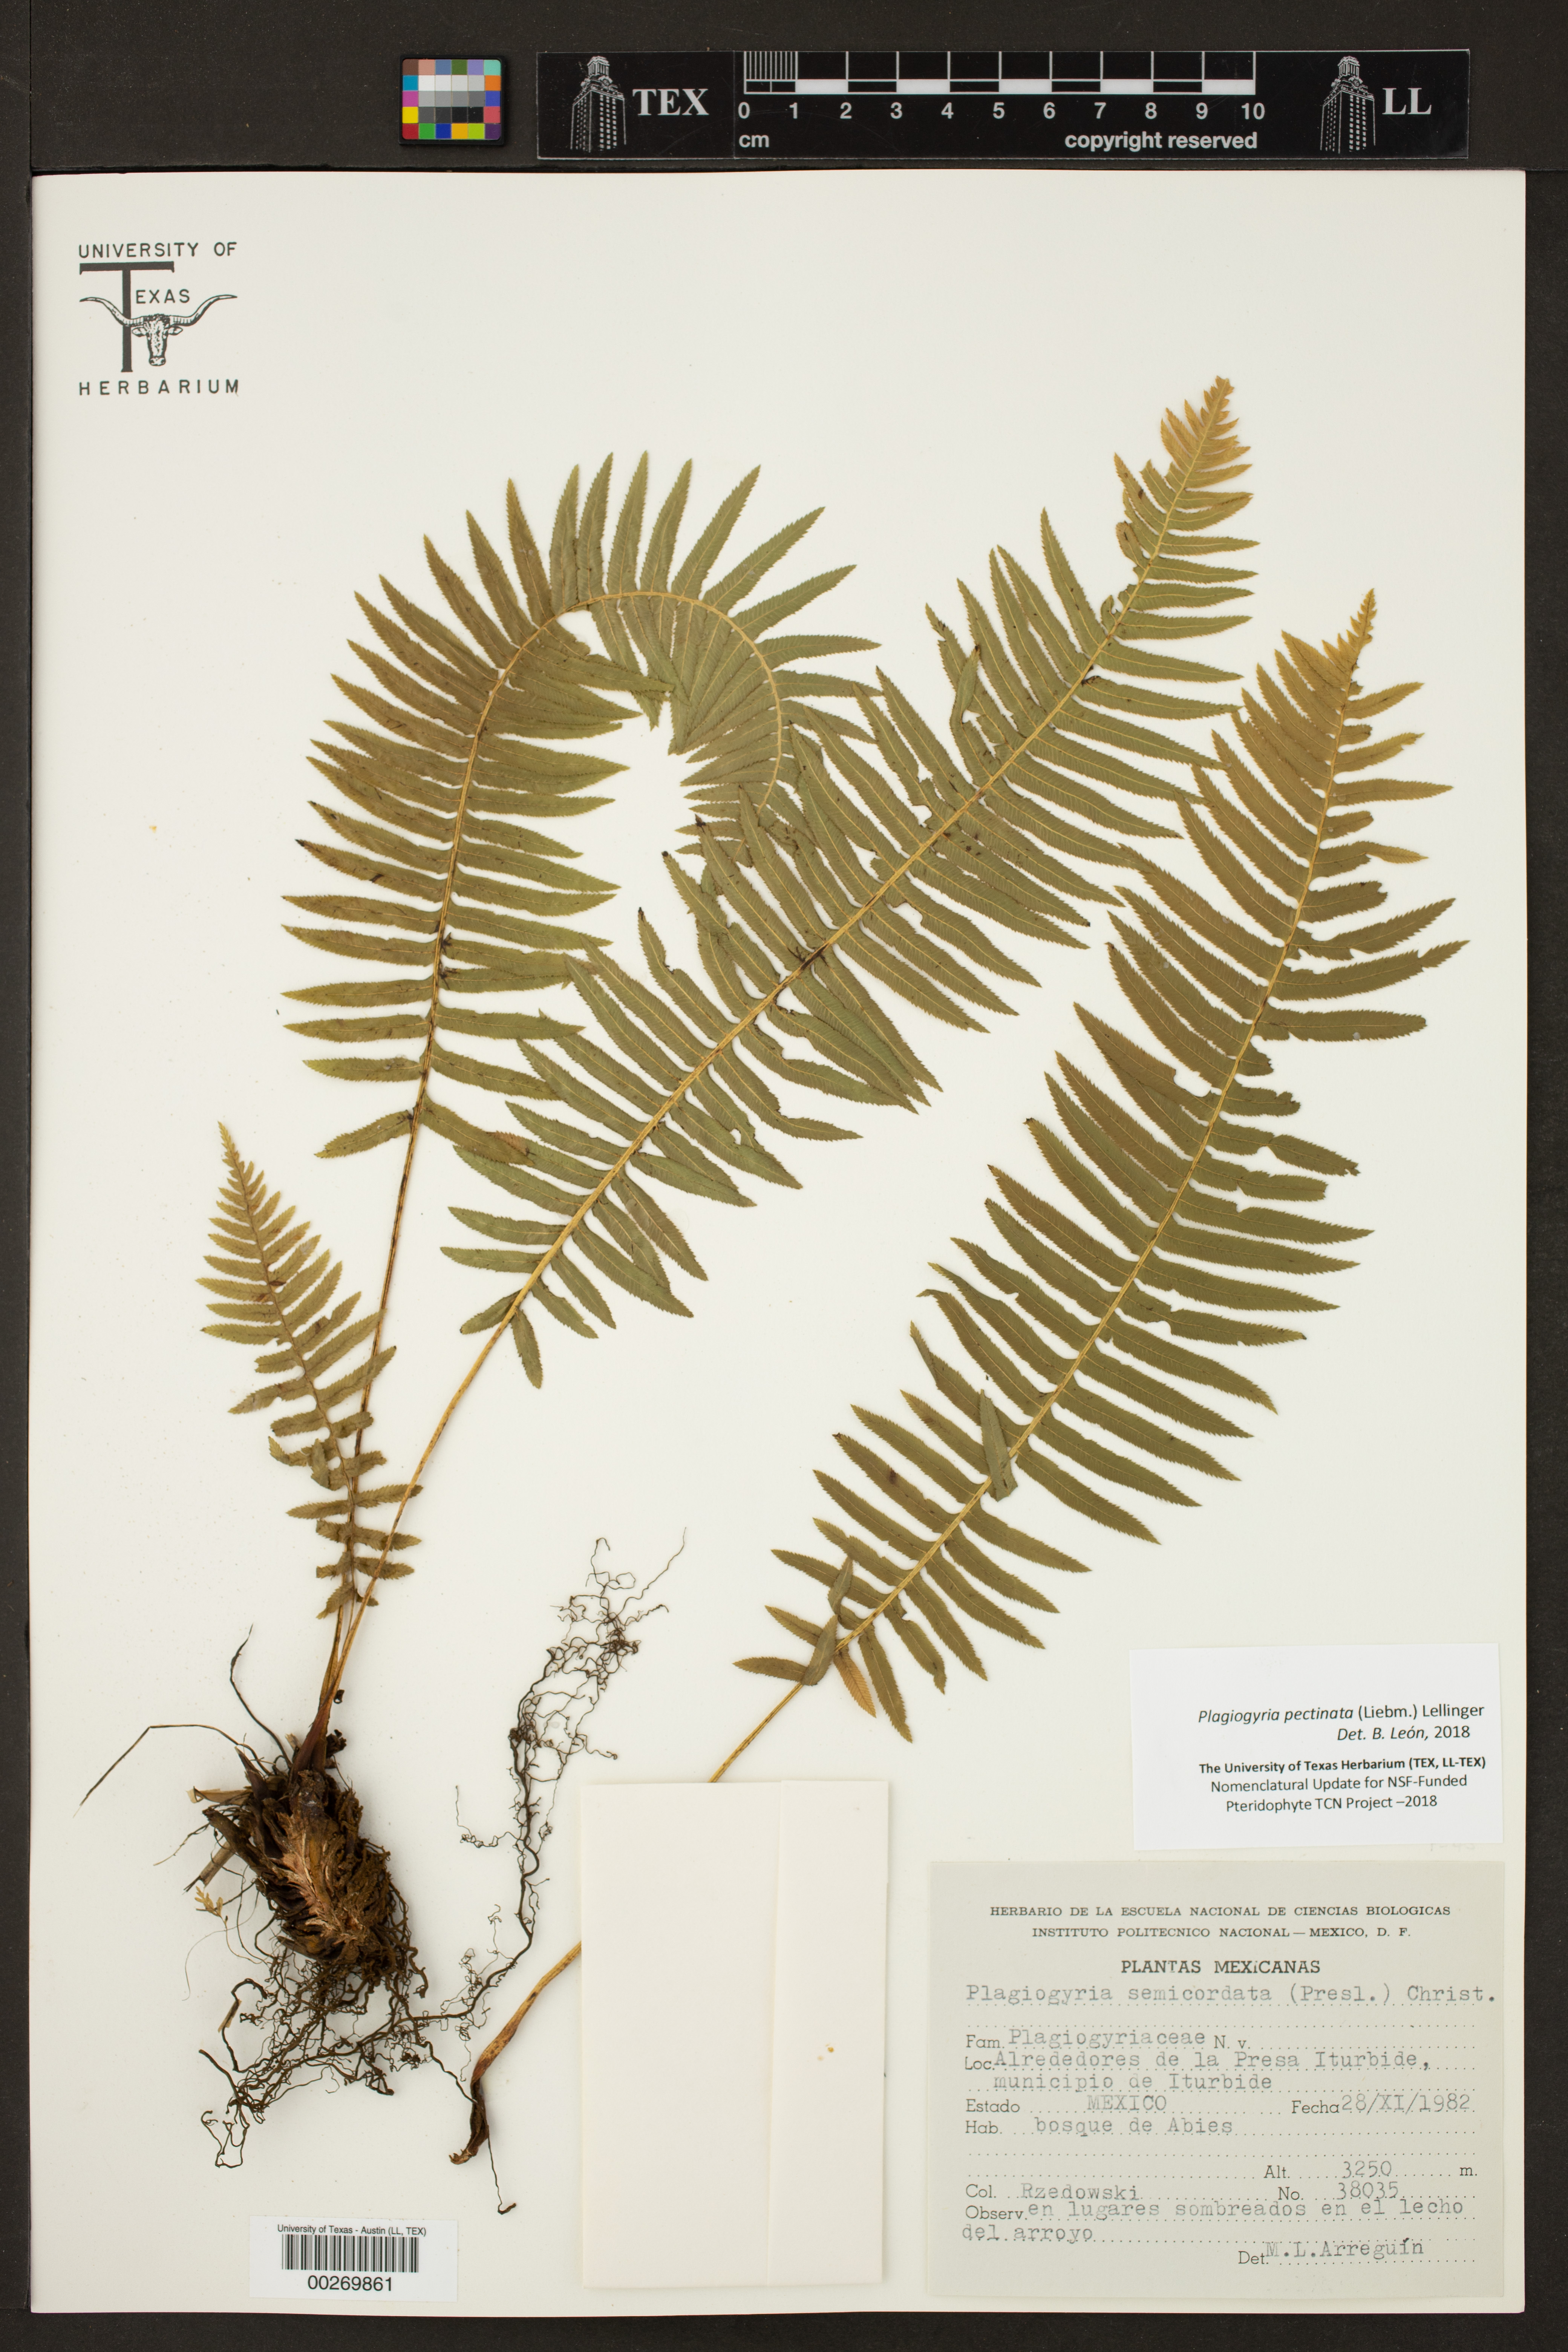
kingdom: Plantae
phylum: Tracheophyta
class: Polypodiopsida
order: Cyatheales
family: Plagiogyriaceae
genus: Plagiogyria
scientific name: Plagiogyria pectinata
